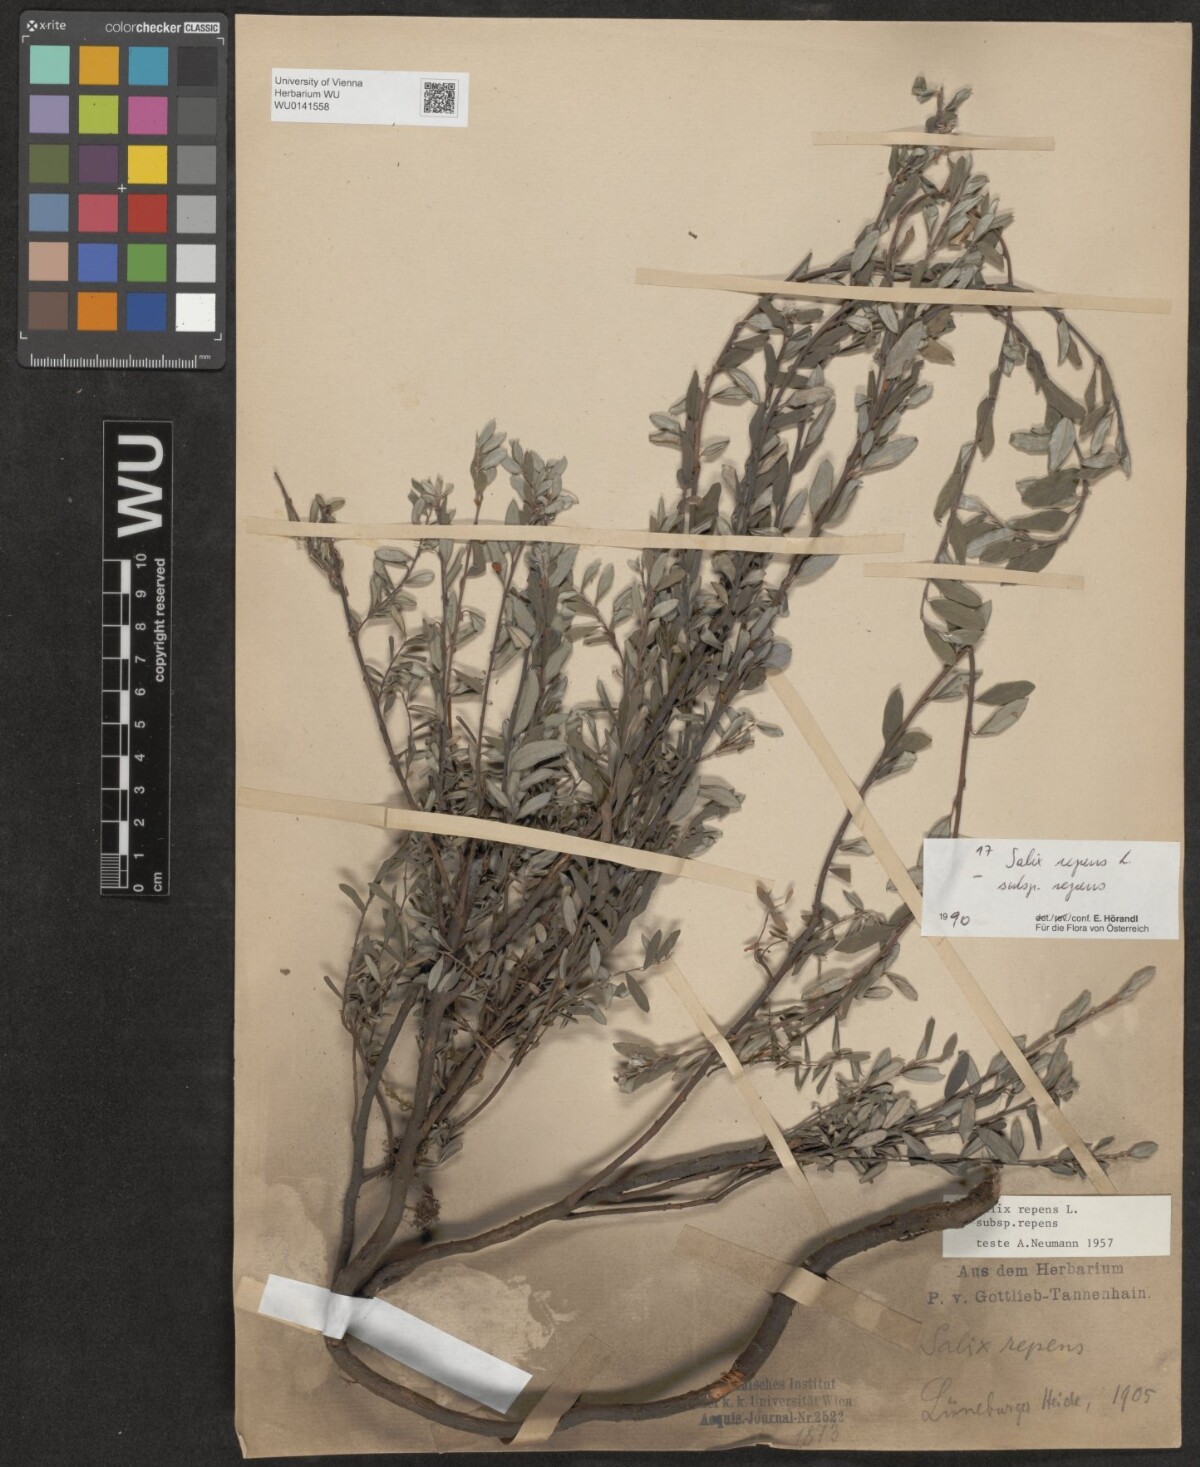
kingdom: Plantae
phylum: Tracheophyta
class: Magnoliopsida
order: Malpighiales
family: Salicaceae
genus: Salix
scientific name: Salix repens
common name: Creeping willow
